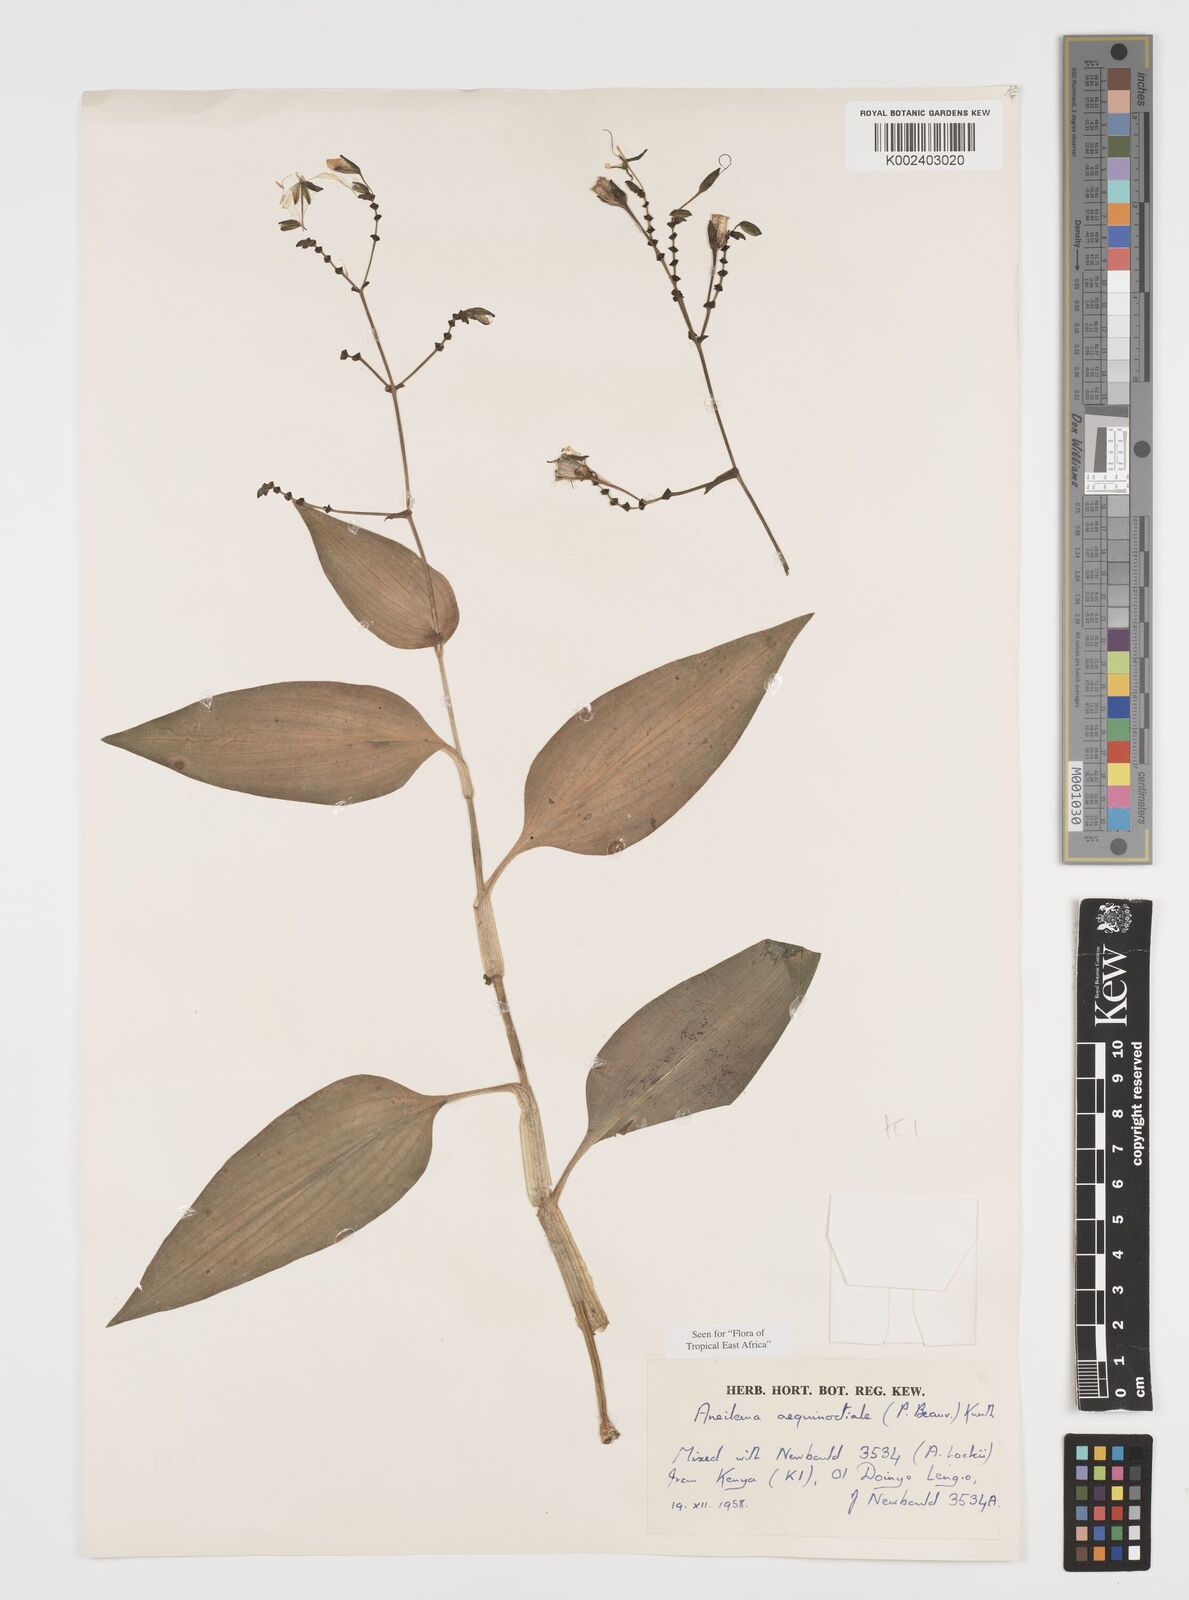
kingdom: Plantae
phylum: Tracheophyta
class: Liliopsida
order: Commelinales
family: Commelinaceae
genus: Aneilema
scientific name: Aneilema aequinoctiale
